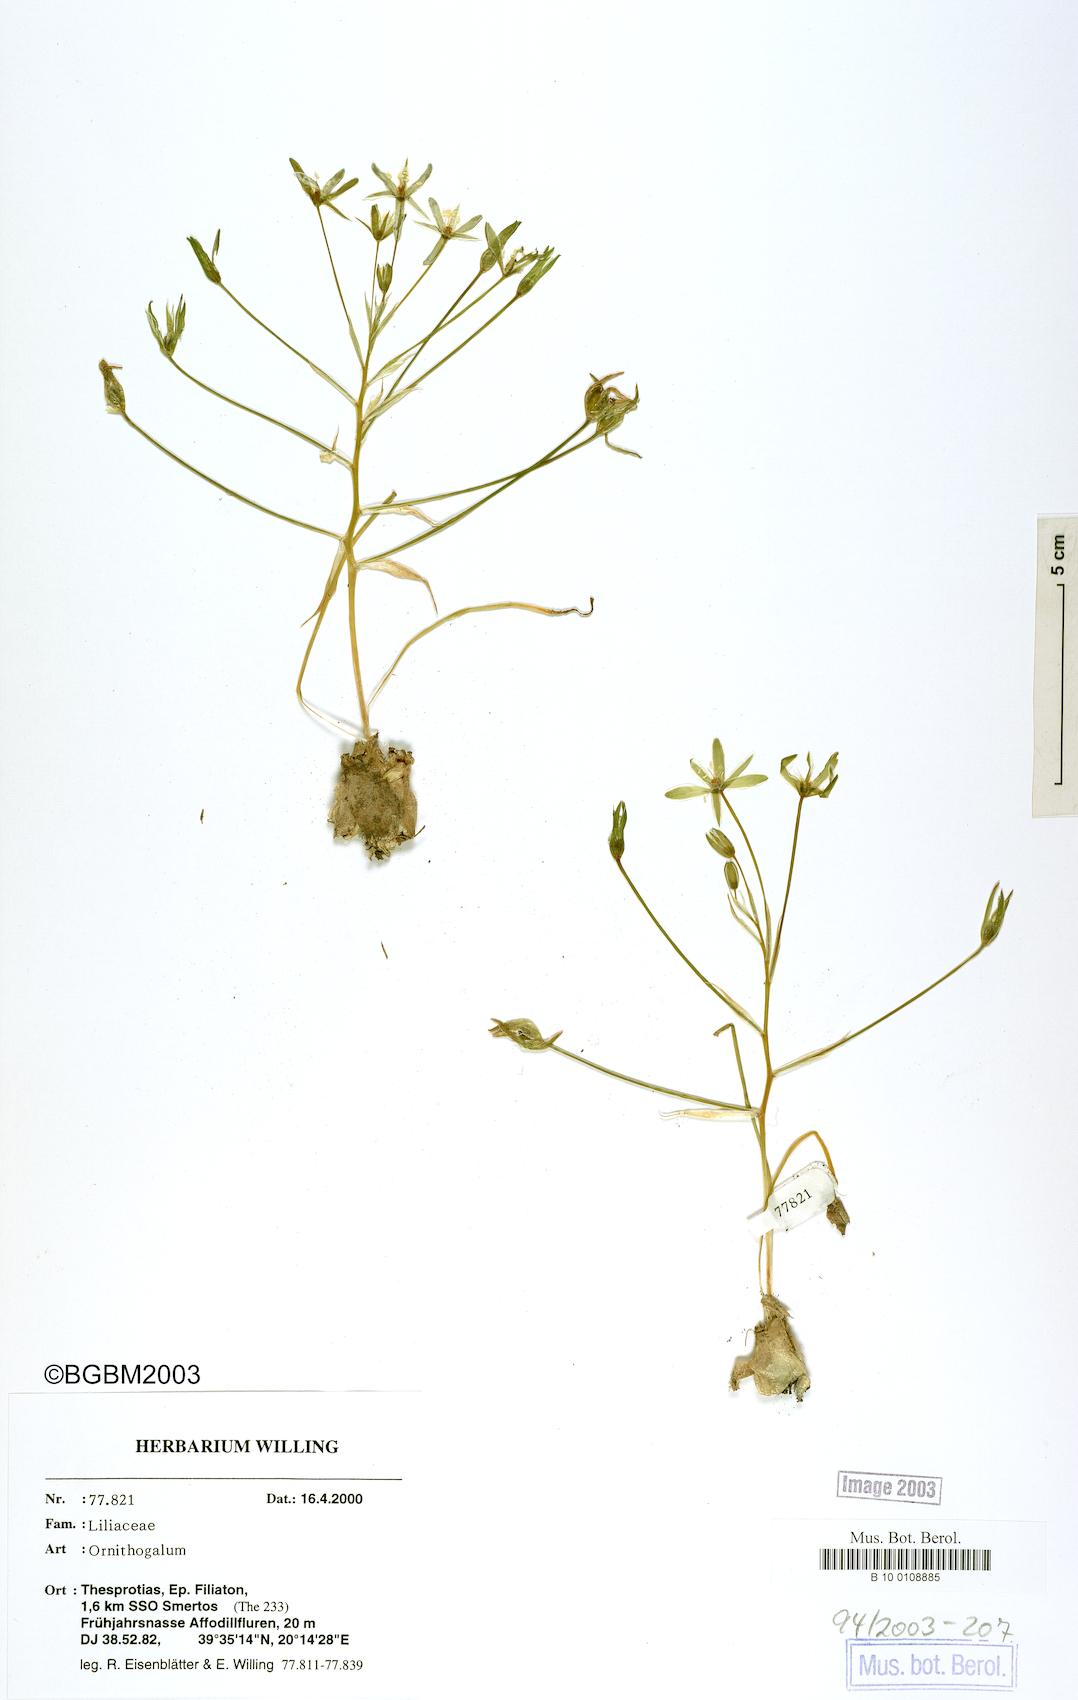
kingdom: Plantae
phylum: Tracheophyta
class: Liliopsida
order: Asparagales
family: Asparagaceae
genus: Ornithogalum
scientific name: Ornithogalum
